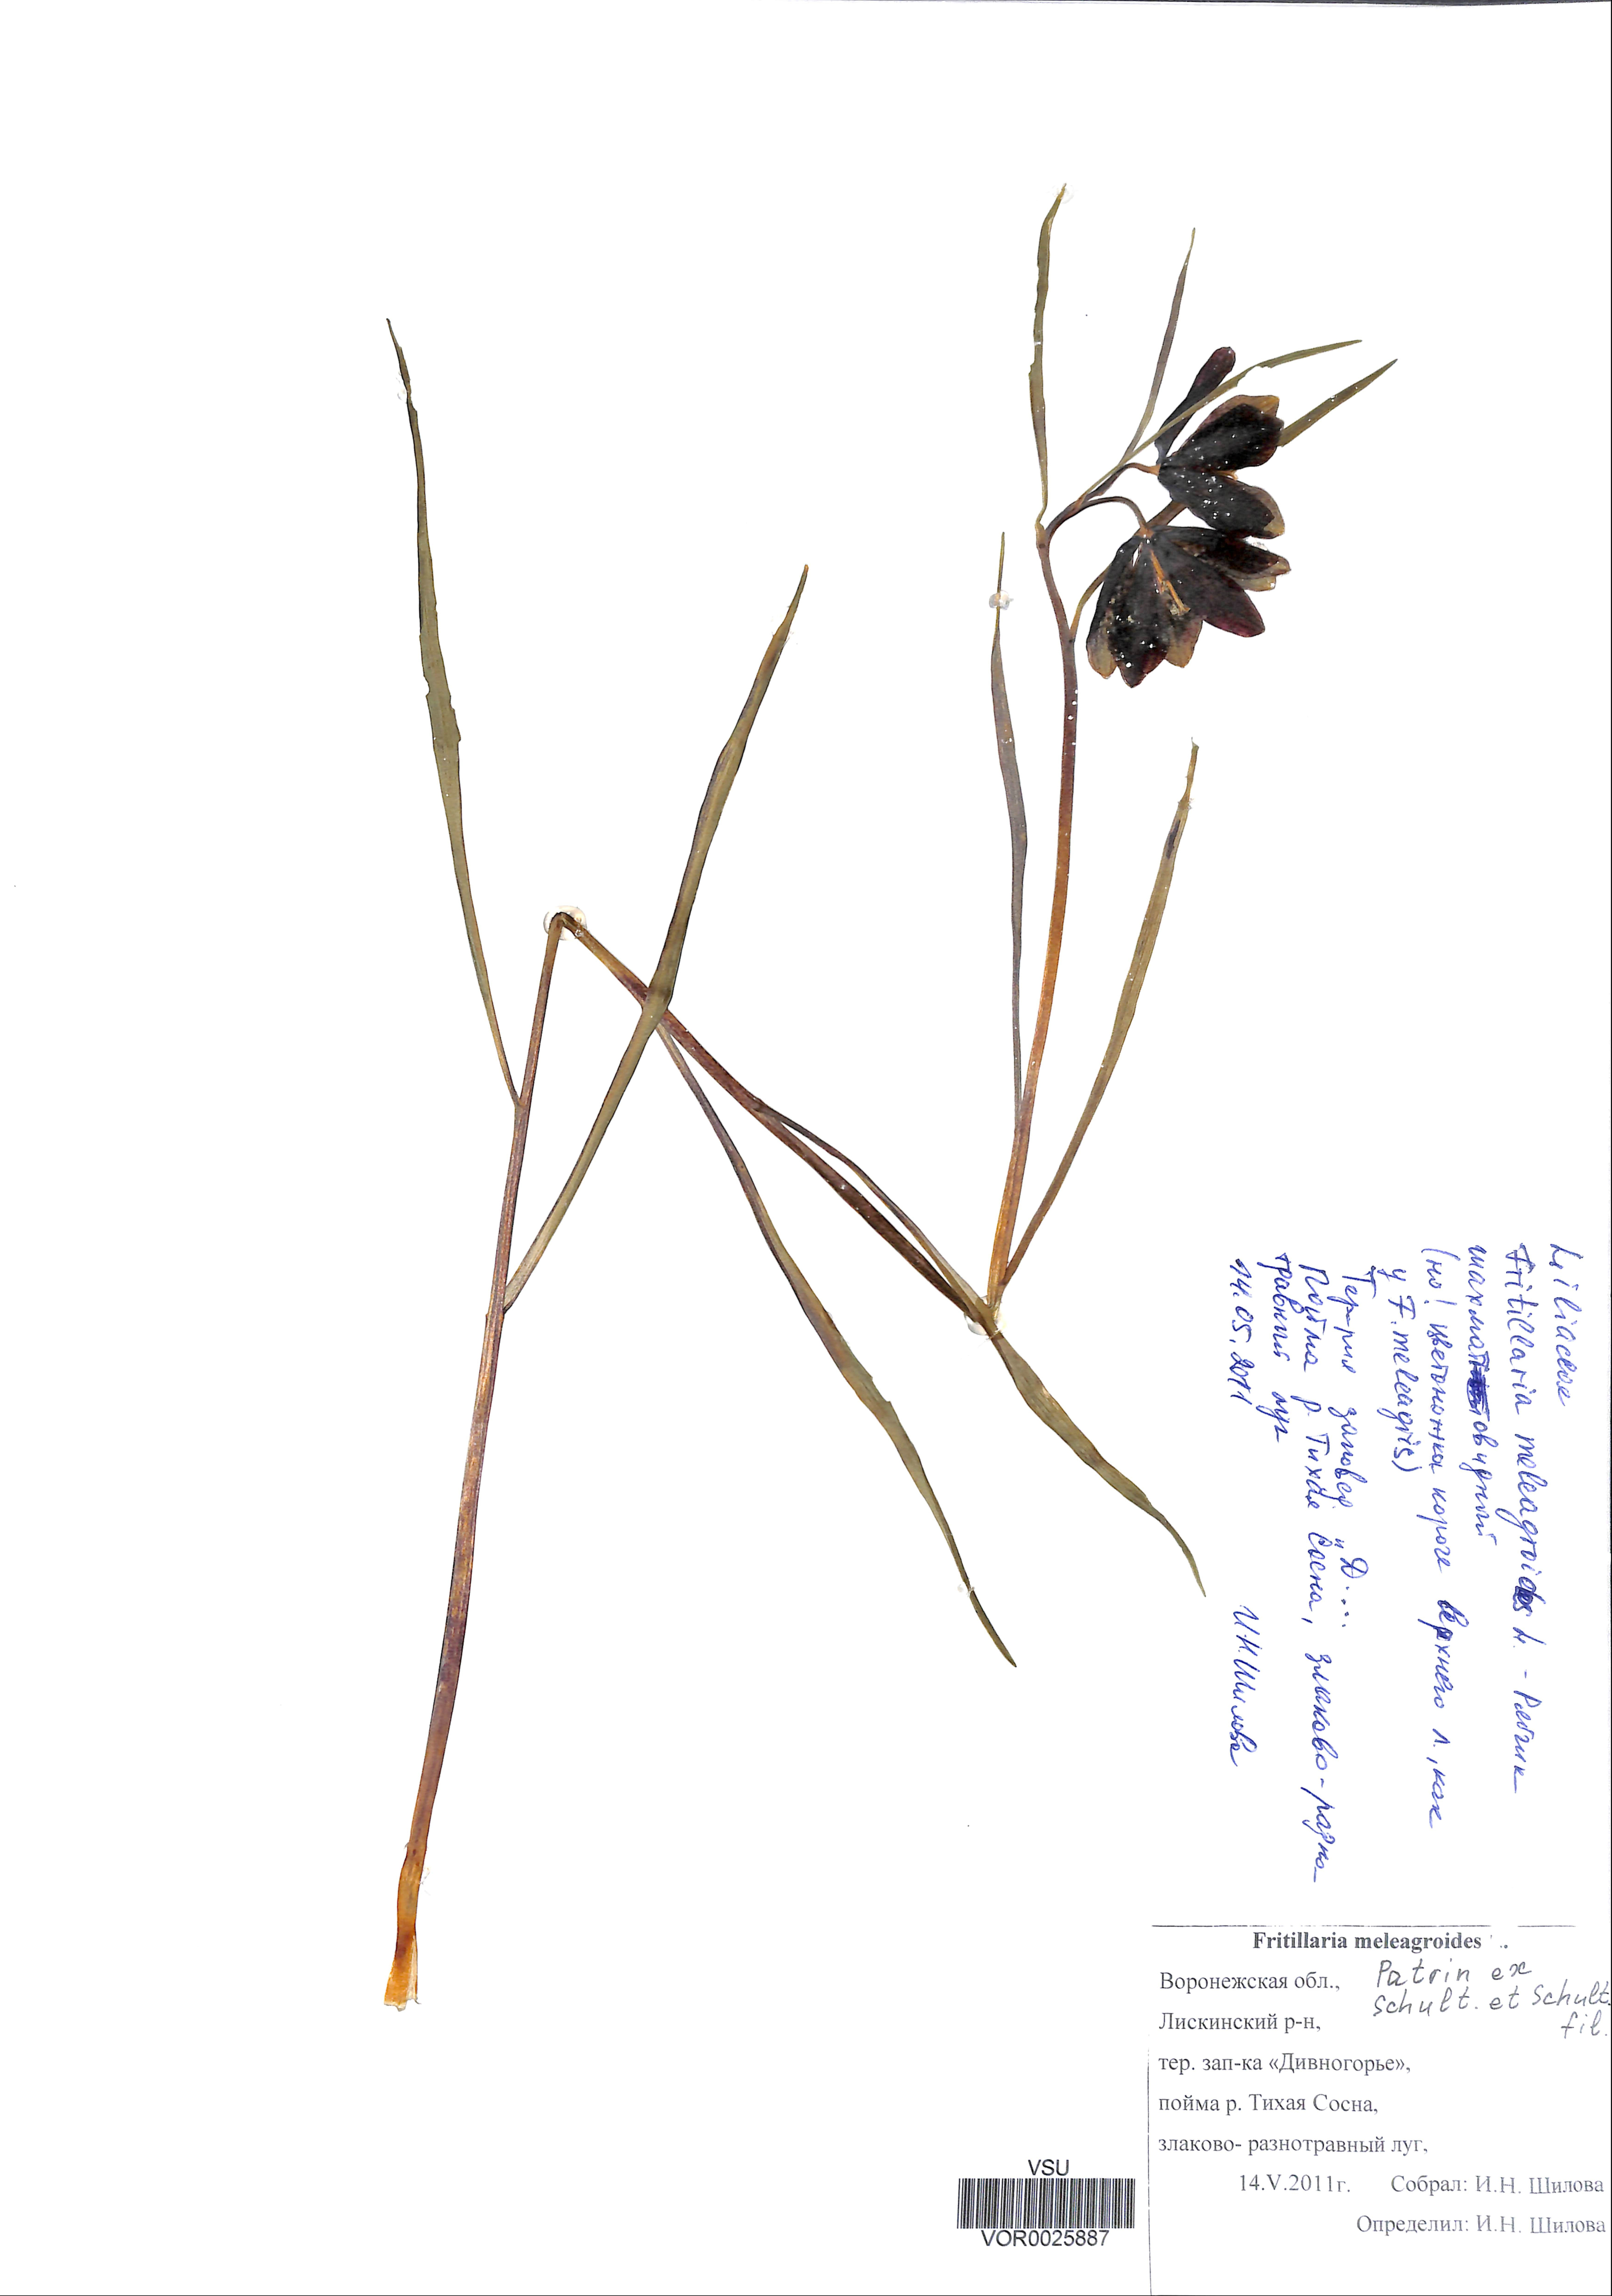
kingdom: Plantae
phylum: Tracheophyta
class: Liliopsida
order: Liliales
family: Liliaceae
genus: Fritillaria
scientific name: Fritillaria meleagroides
